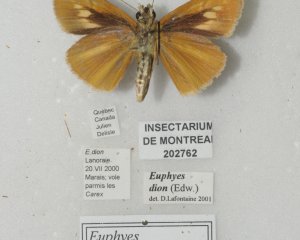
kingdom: Animalia
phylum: Arthropoda
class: Insecta
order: Lepidoptera
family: Hesperiidae
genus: Euphyes
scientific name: Euphyes dion
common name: Dion Skipper
